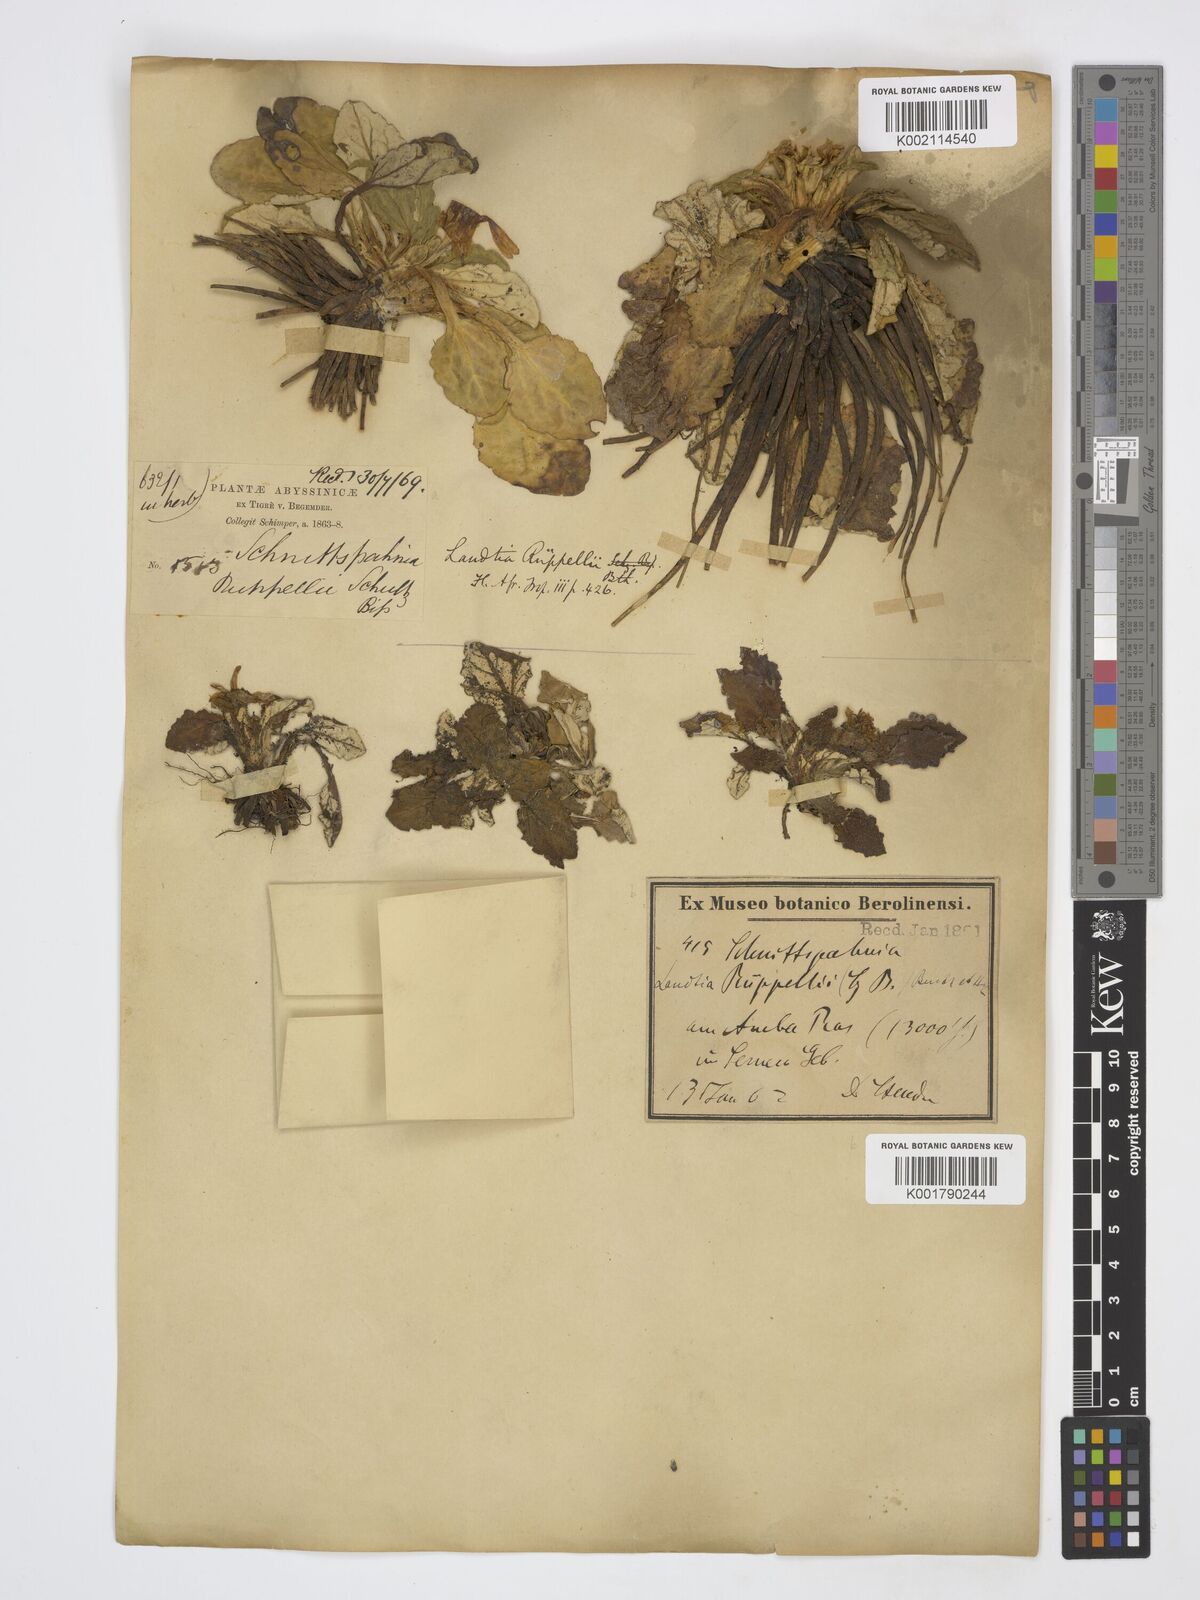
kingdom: Plantae
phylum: Tracheophyta
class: Magnoliopsida
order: Asterales
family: Asteraceae
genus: Haplocarpha
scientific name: Haplocarpha rueppelii
